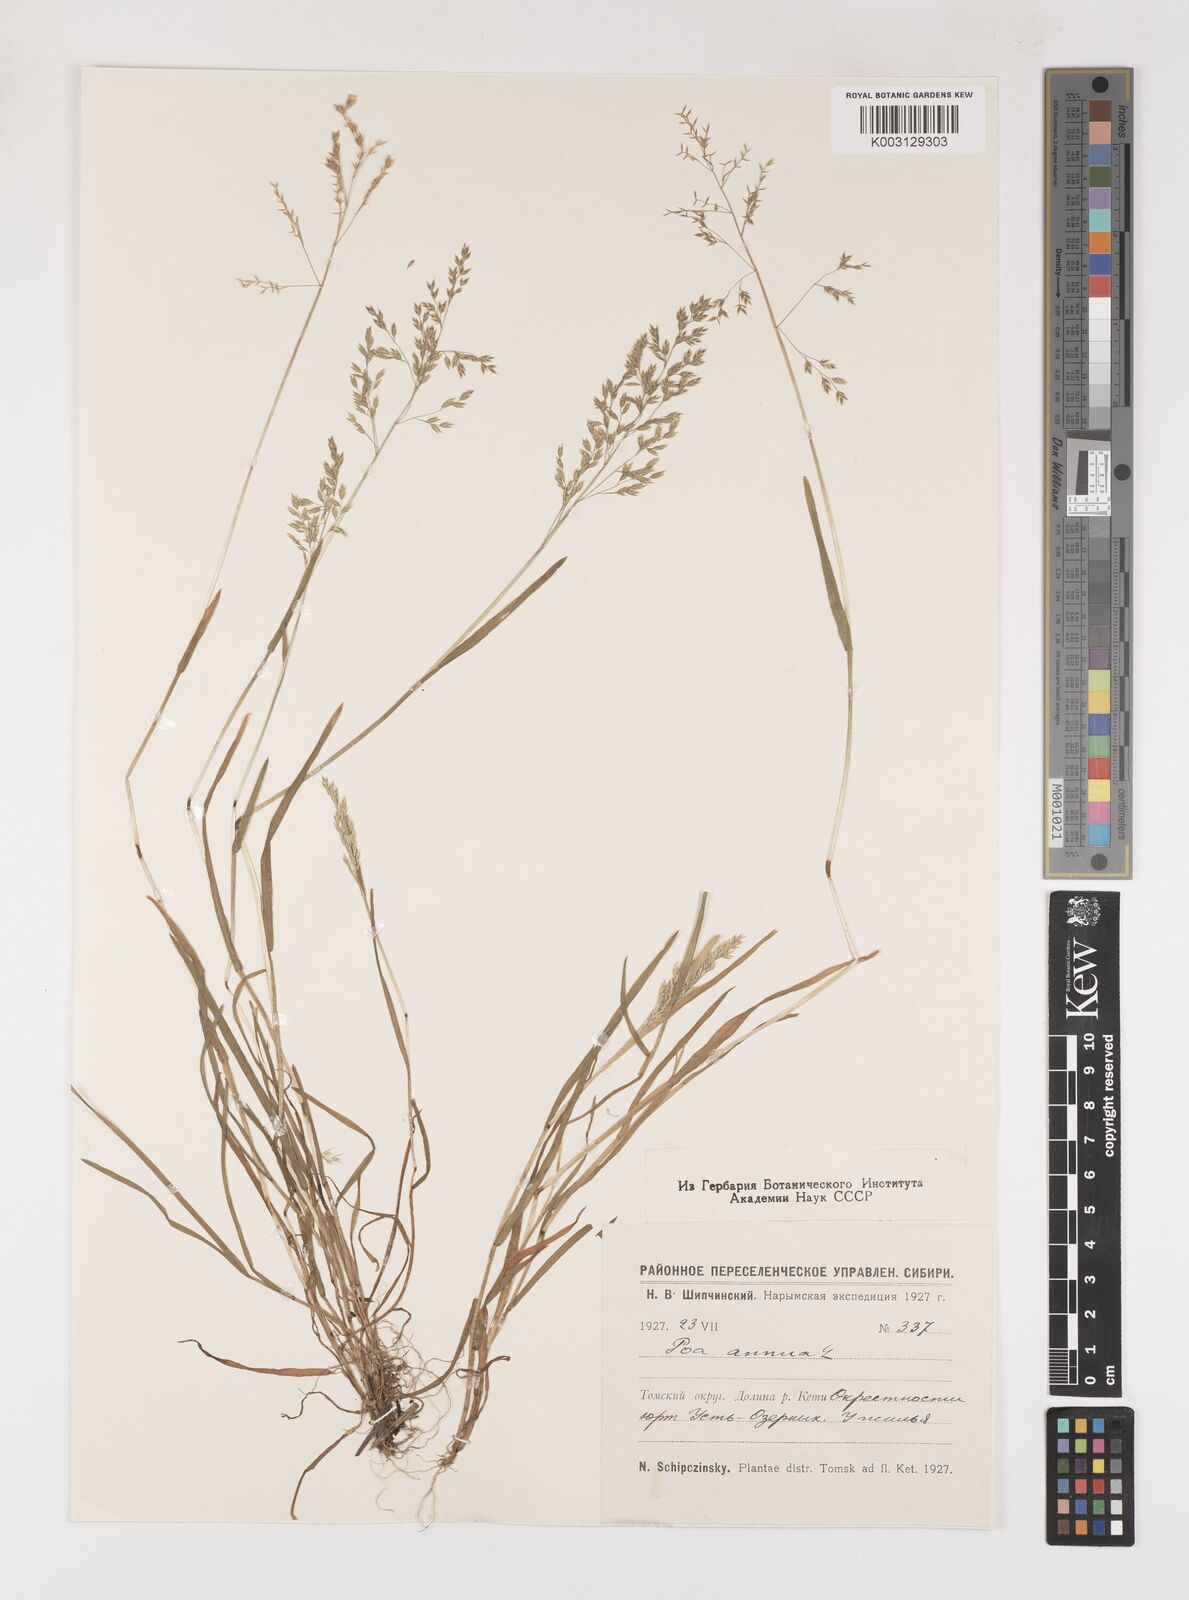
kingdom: Plantae
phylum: Tracheophyta
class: Liliopsida
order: Poales
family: Poaceae
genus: Poa
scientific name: Poa annua
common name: Annual bluegrass
